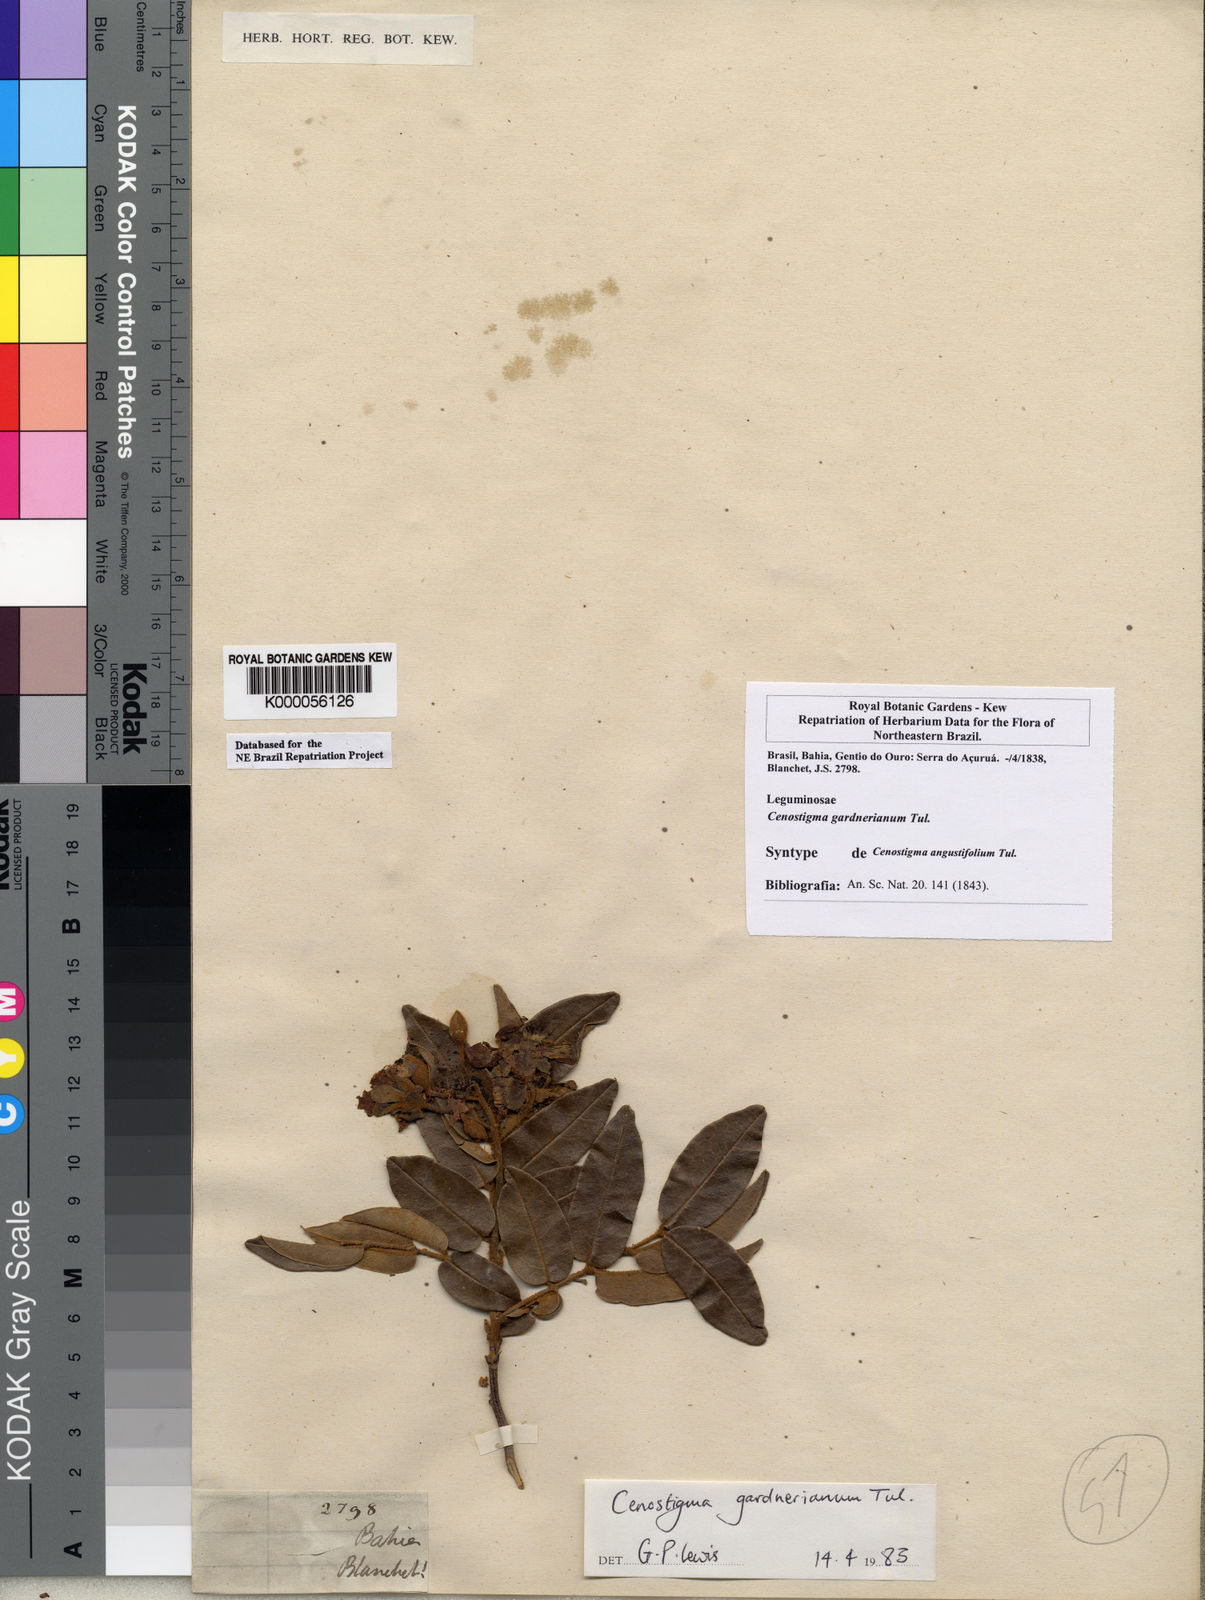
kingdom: Plantae
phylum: Tracheophyta
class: Magnoliopsida
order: Fabales
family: Fabaceae
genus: Cenostigma
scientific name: Cenostigma macrophyllum
